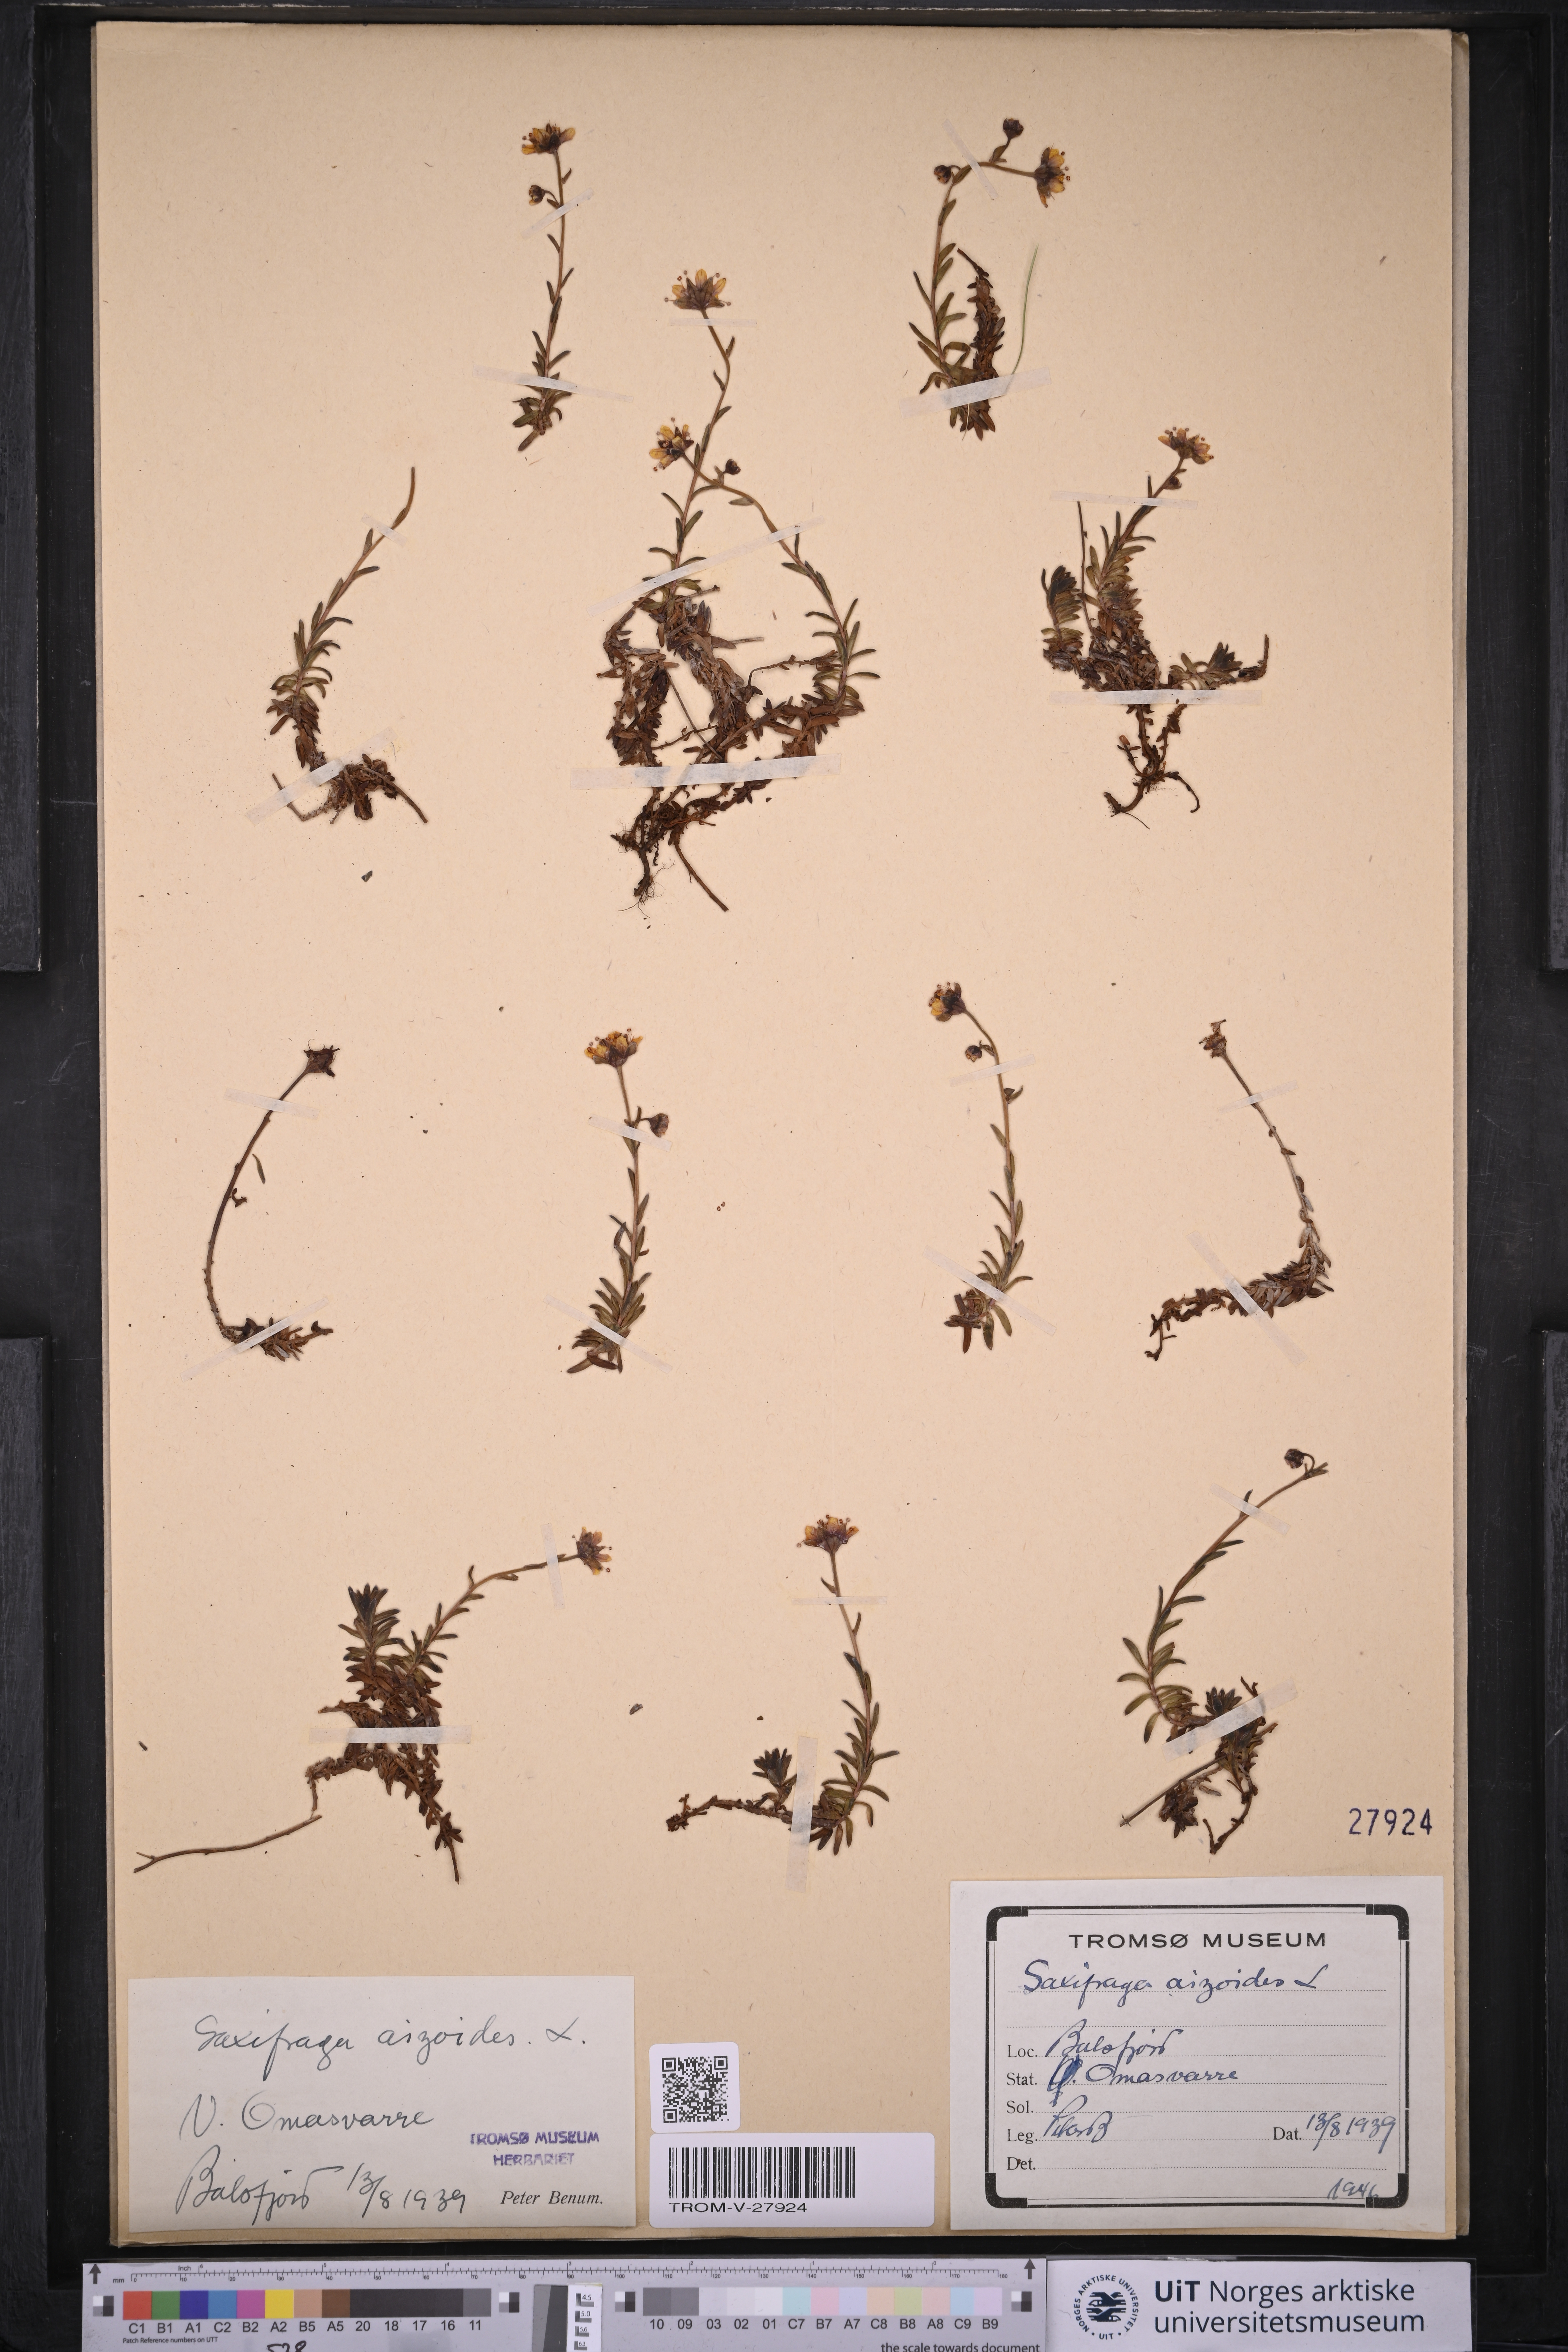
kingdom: Plantae
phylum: Tracheophyta
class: Magnoliopsida
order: Saxifragales
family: Saxifragaceae
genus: Saxifraga
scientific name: Saxifraga aizoides
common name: Yellow mountain saxifrage
